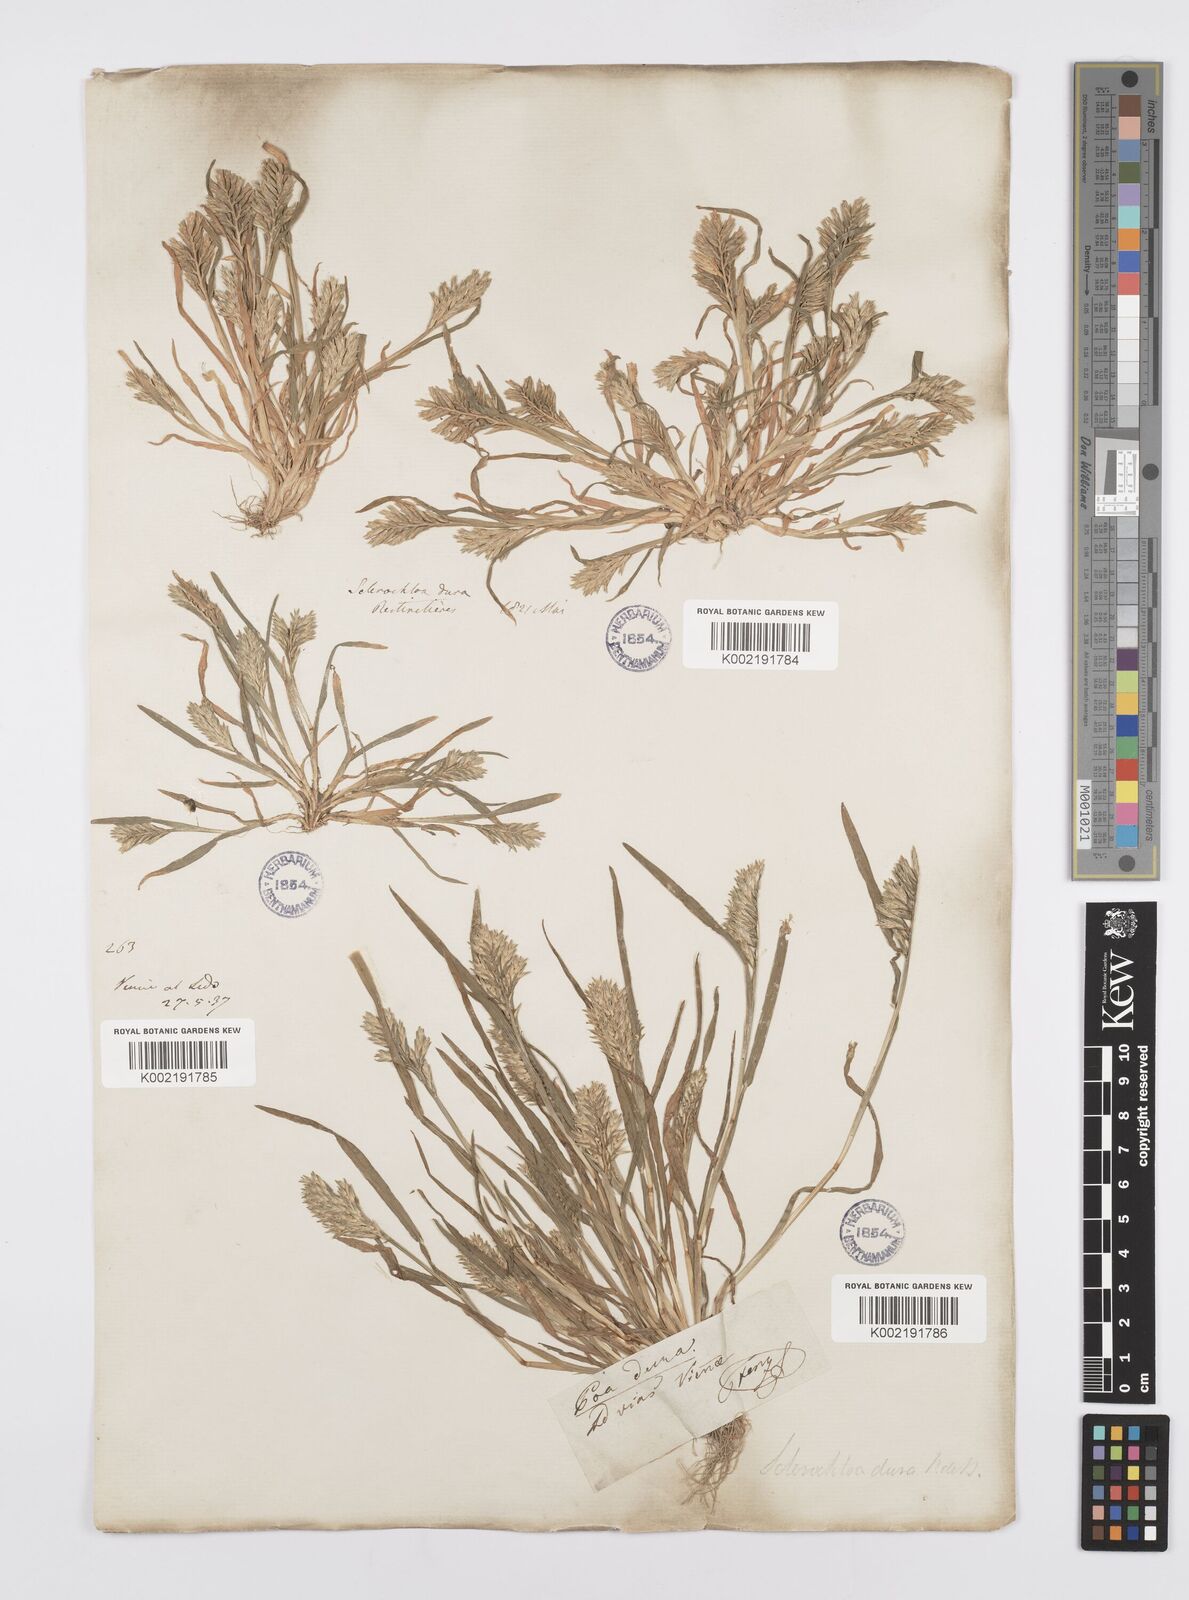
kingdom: Plantae
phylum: Tracheophyta
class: Liliopsida
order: Poales
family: Poaceae
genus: Sclerochloa
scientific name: Sclerochloa dura
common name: Common hardgrass
